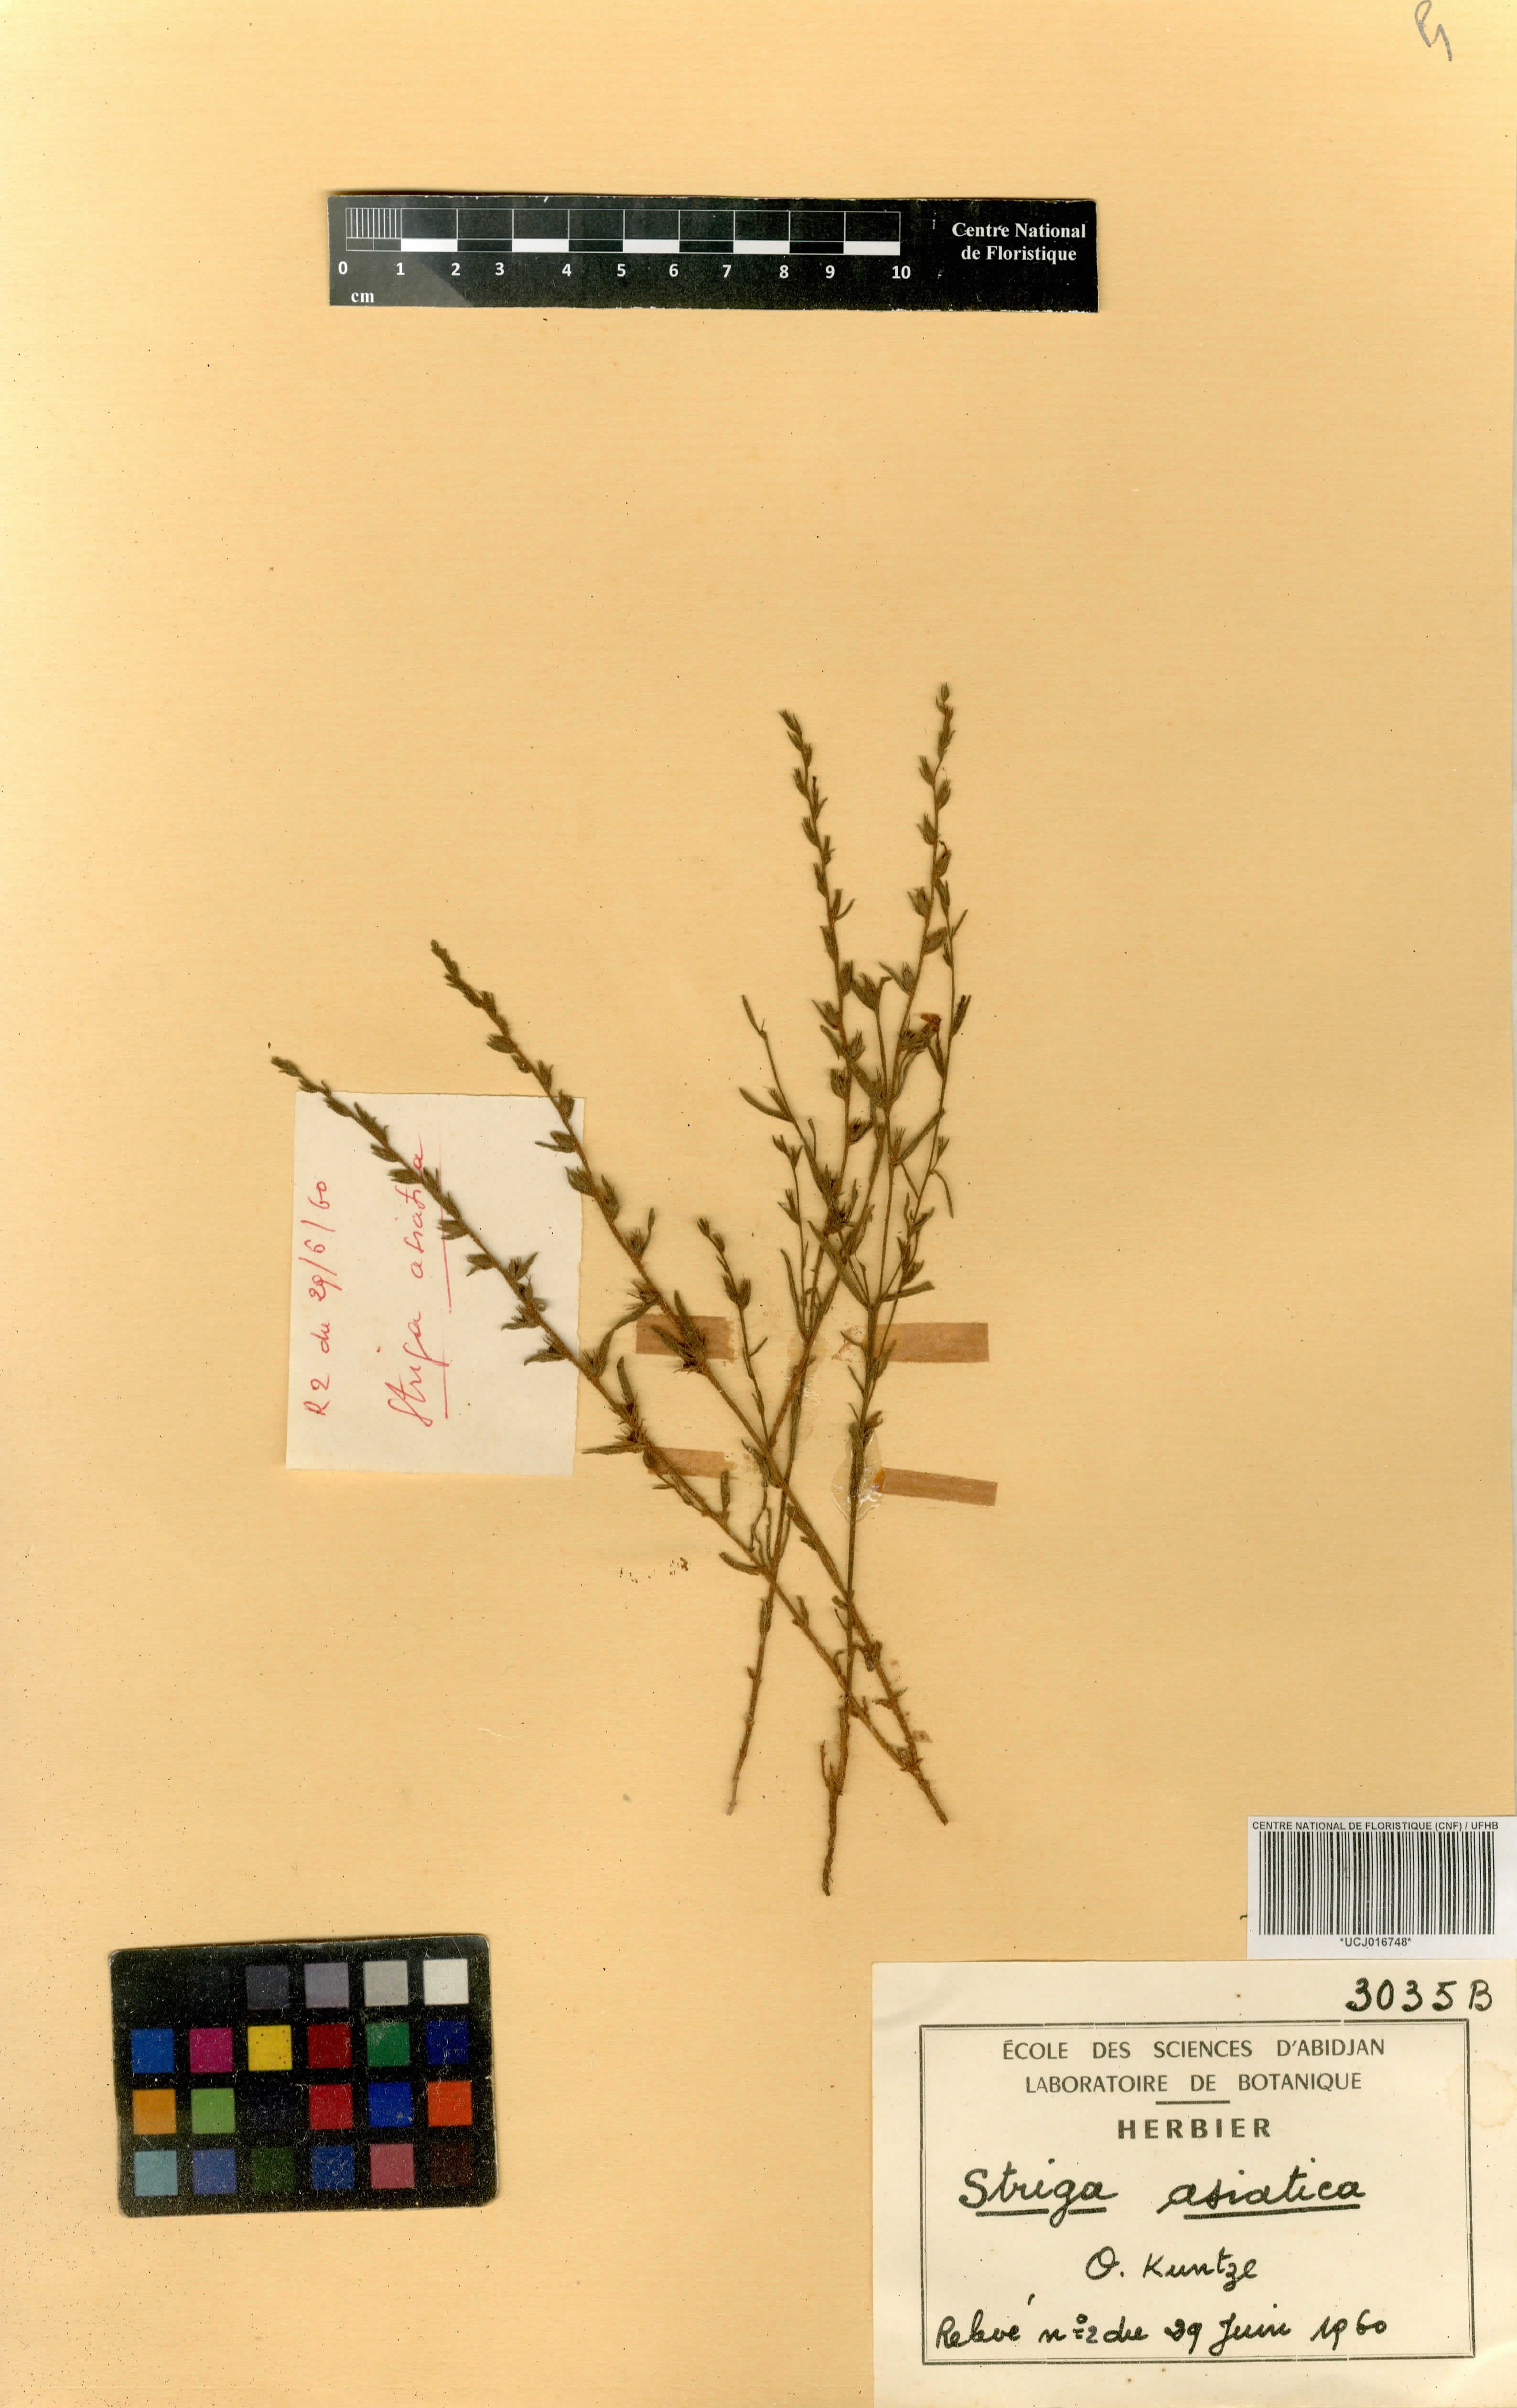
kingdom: Plantae
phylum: Tracheophyta
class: Magnoliopsida
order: Lamiales
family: Orobanchaceae
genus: Striga
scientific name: Striga asiatica
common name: Asiatic witchweed
